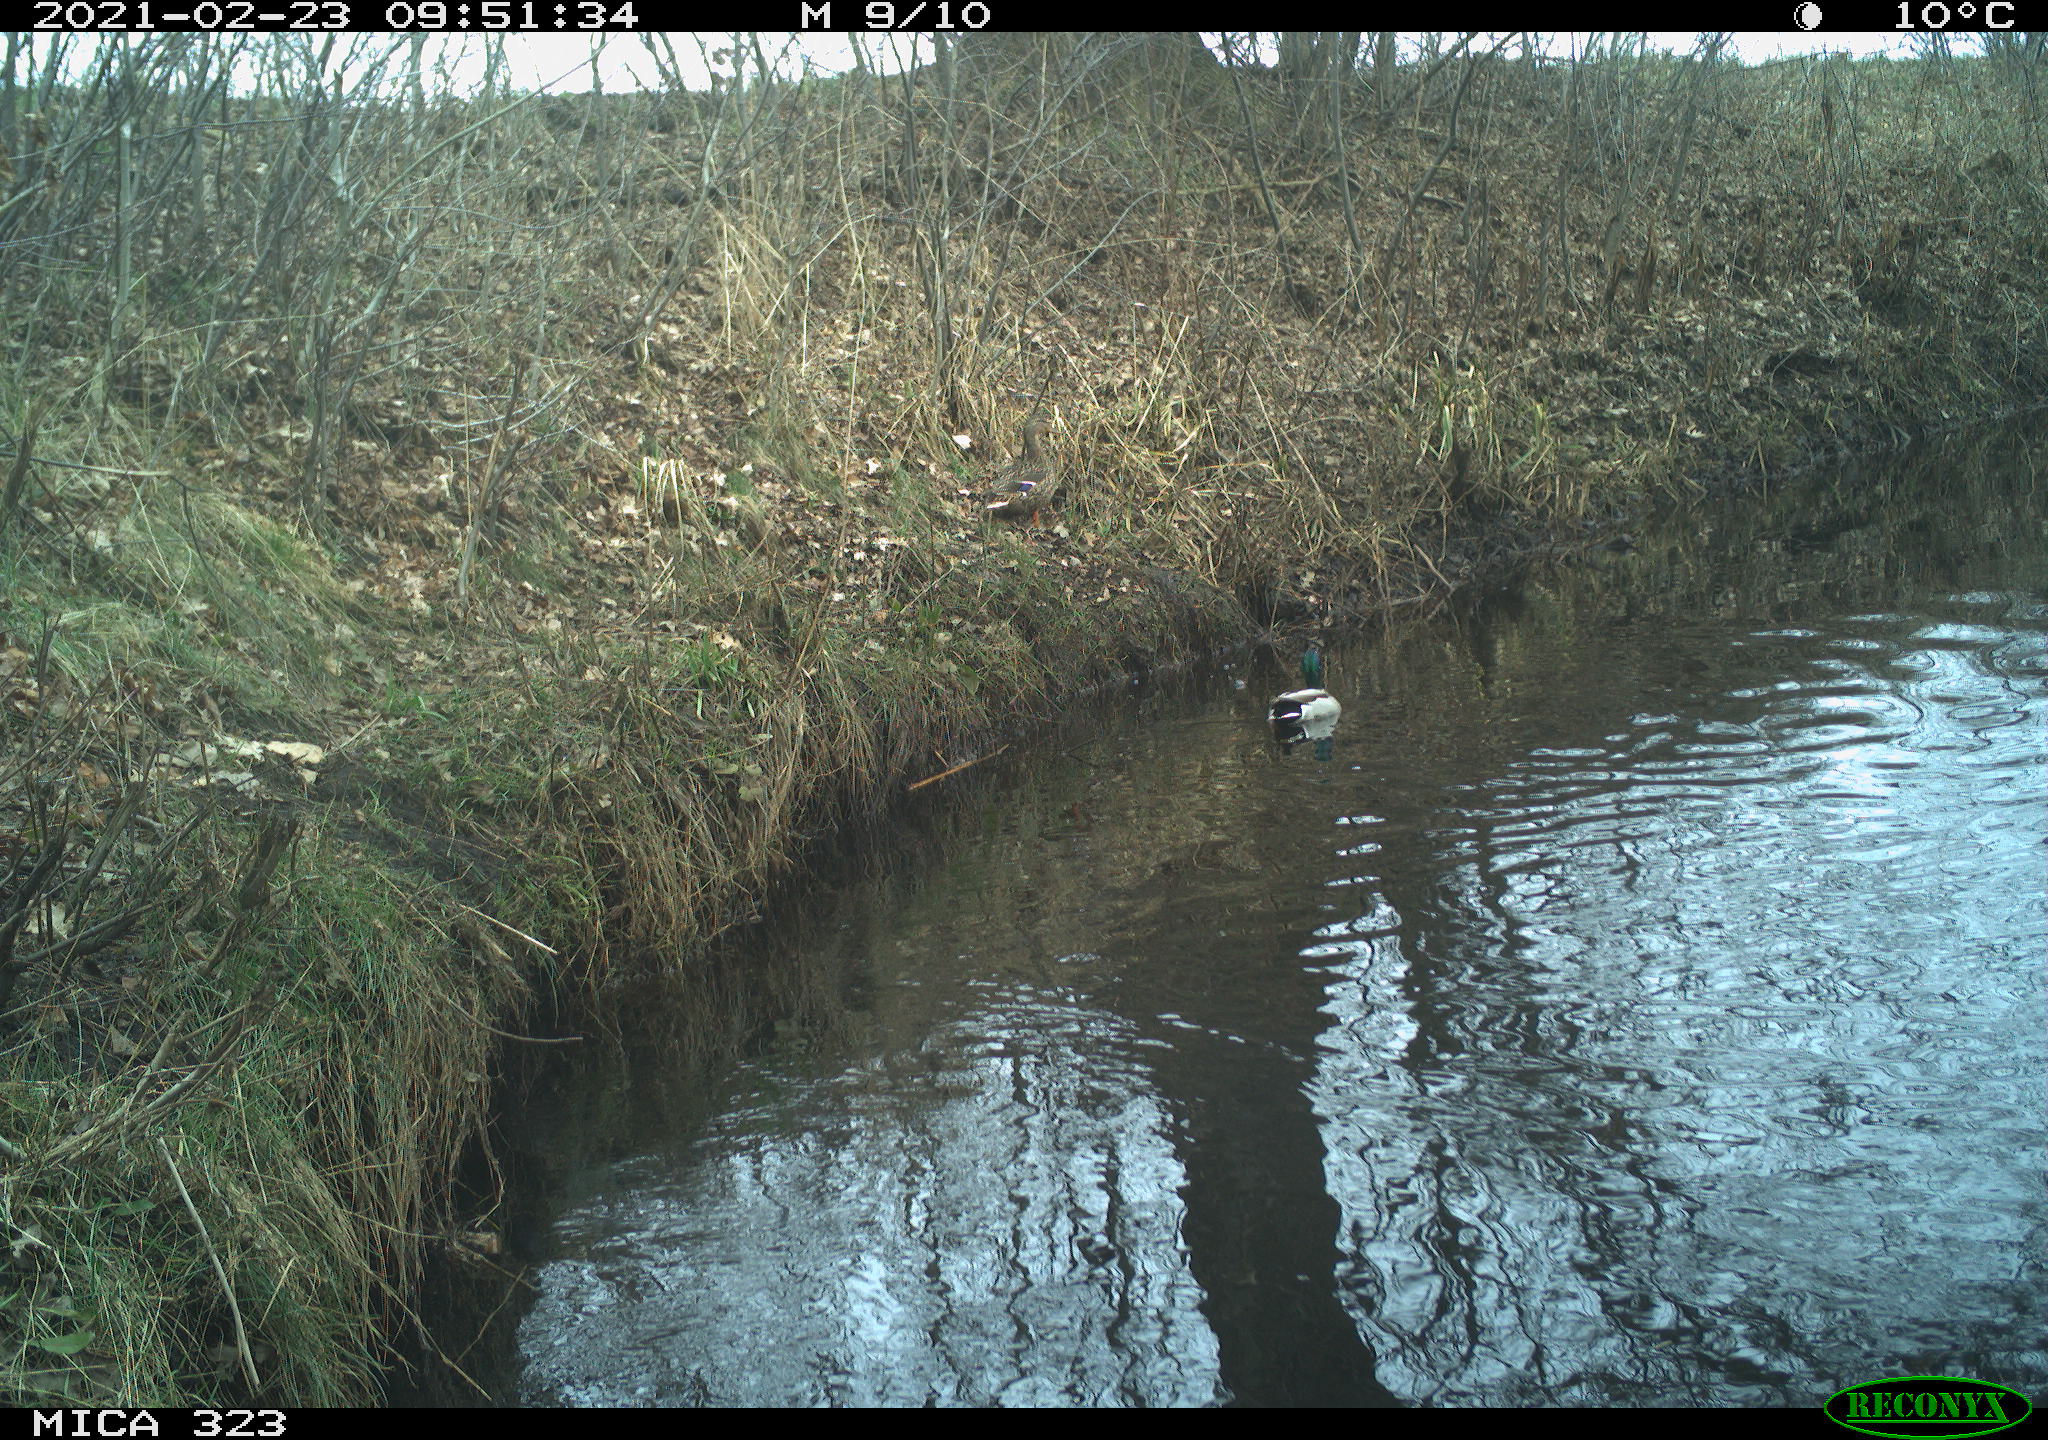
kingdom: Animalia
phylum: Chordata
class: Aves
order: Anseriformes
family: Anatidae
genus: Anas
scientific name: Anas platyrhynchos
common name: Mallard
